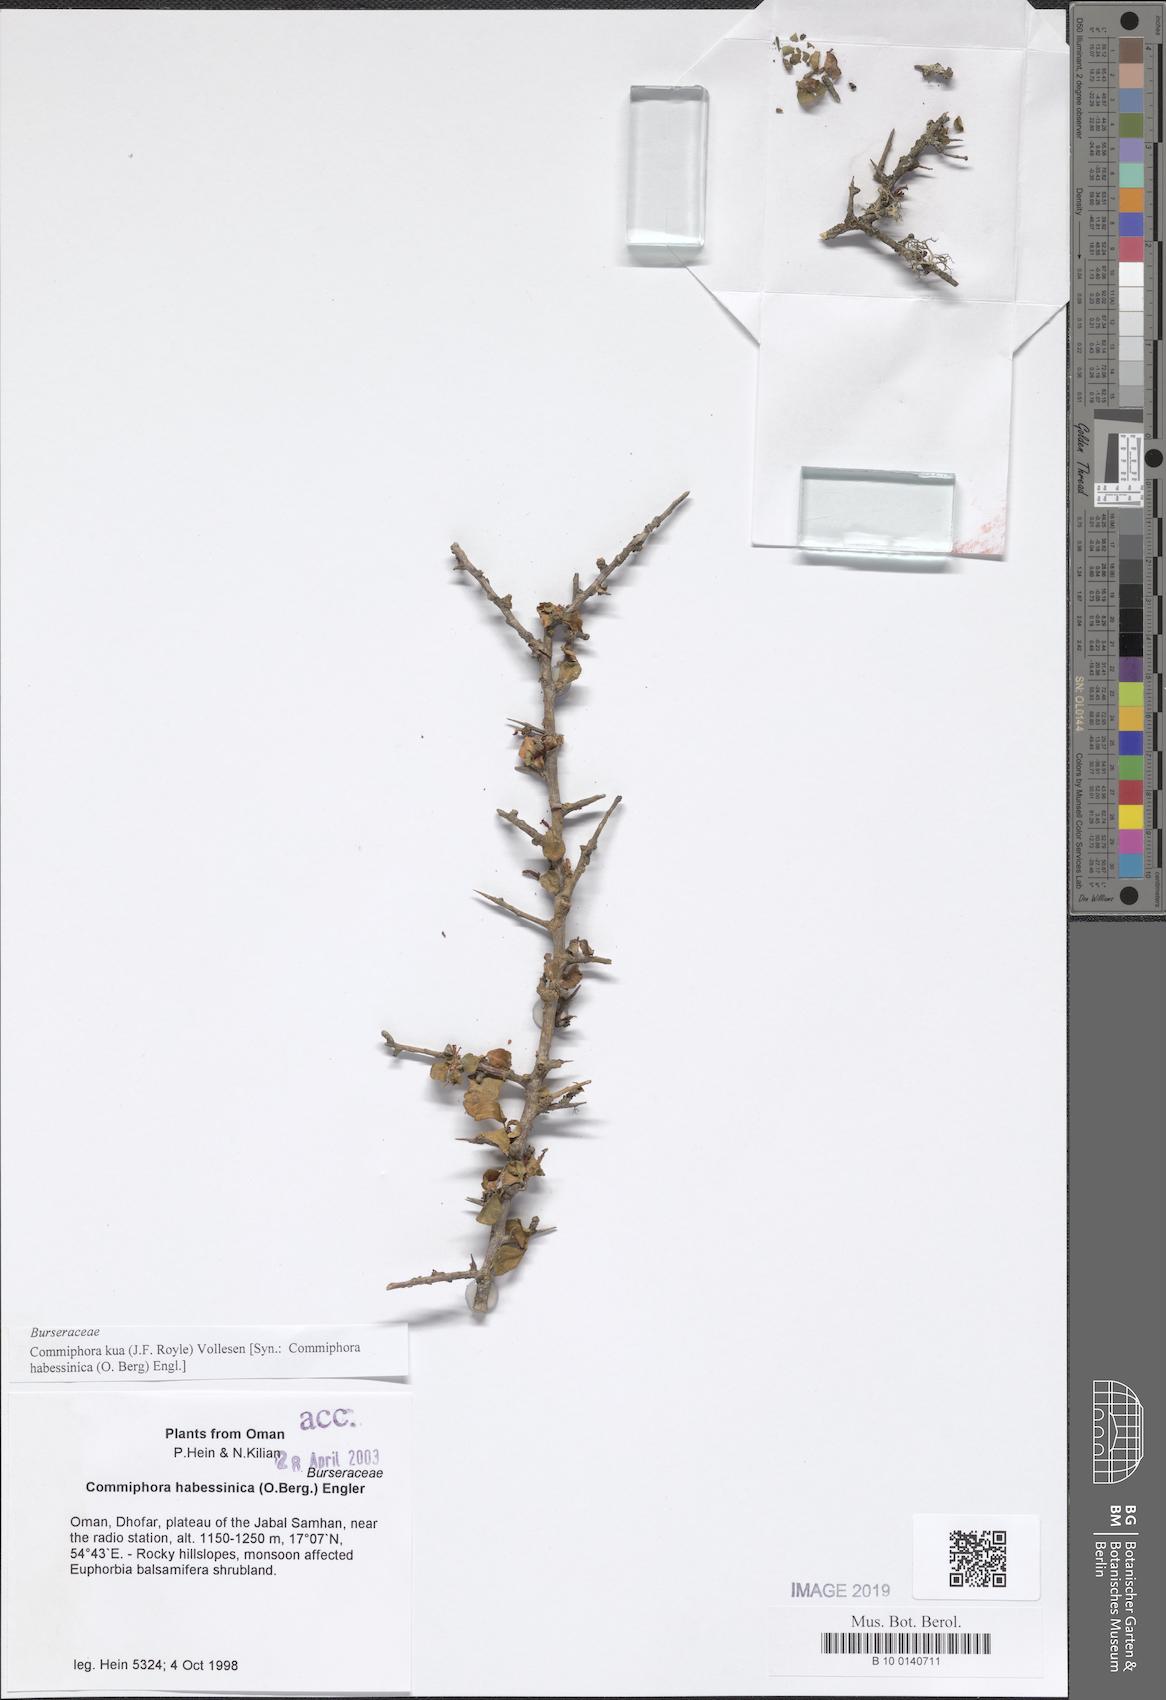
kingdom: Plantae
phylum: Tracheophyta
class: Magnoliopsida
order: Sapindales
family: Burseraceae
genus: Commiphora
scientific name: Commiphora kua
